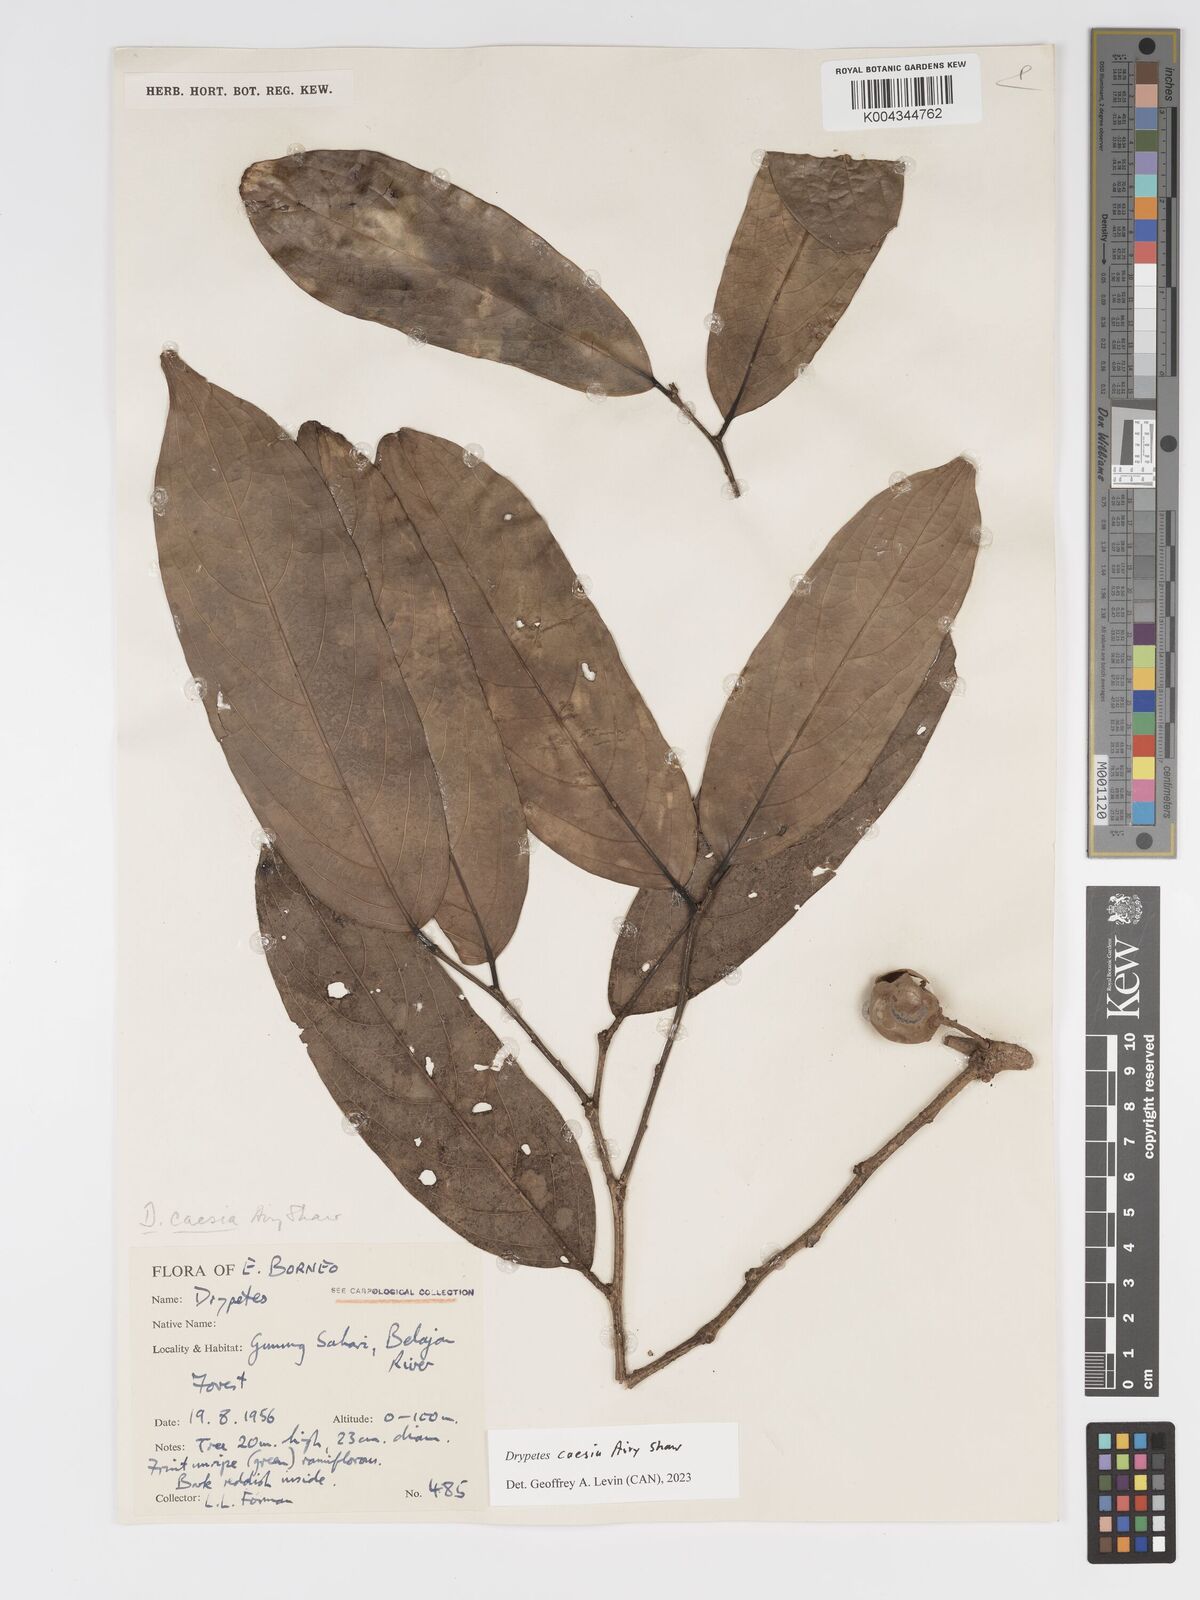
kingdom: Plantae
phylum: Tracheophyta
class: Magnoliopsida
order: Malpighiales
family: Putranjivaceae
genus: Drypetes
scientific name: Drypetes caesia
